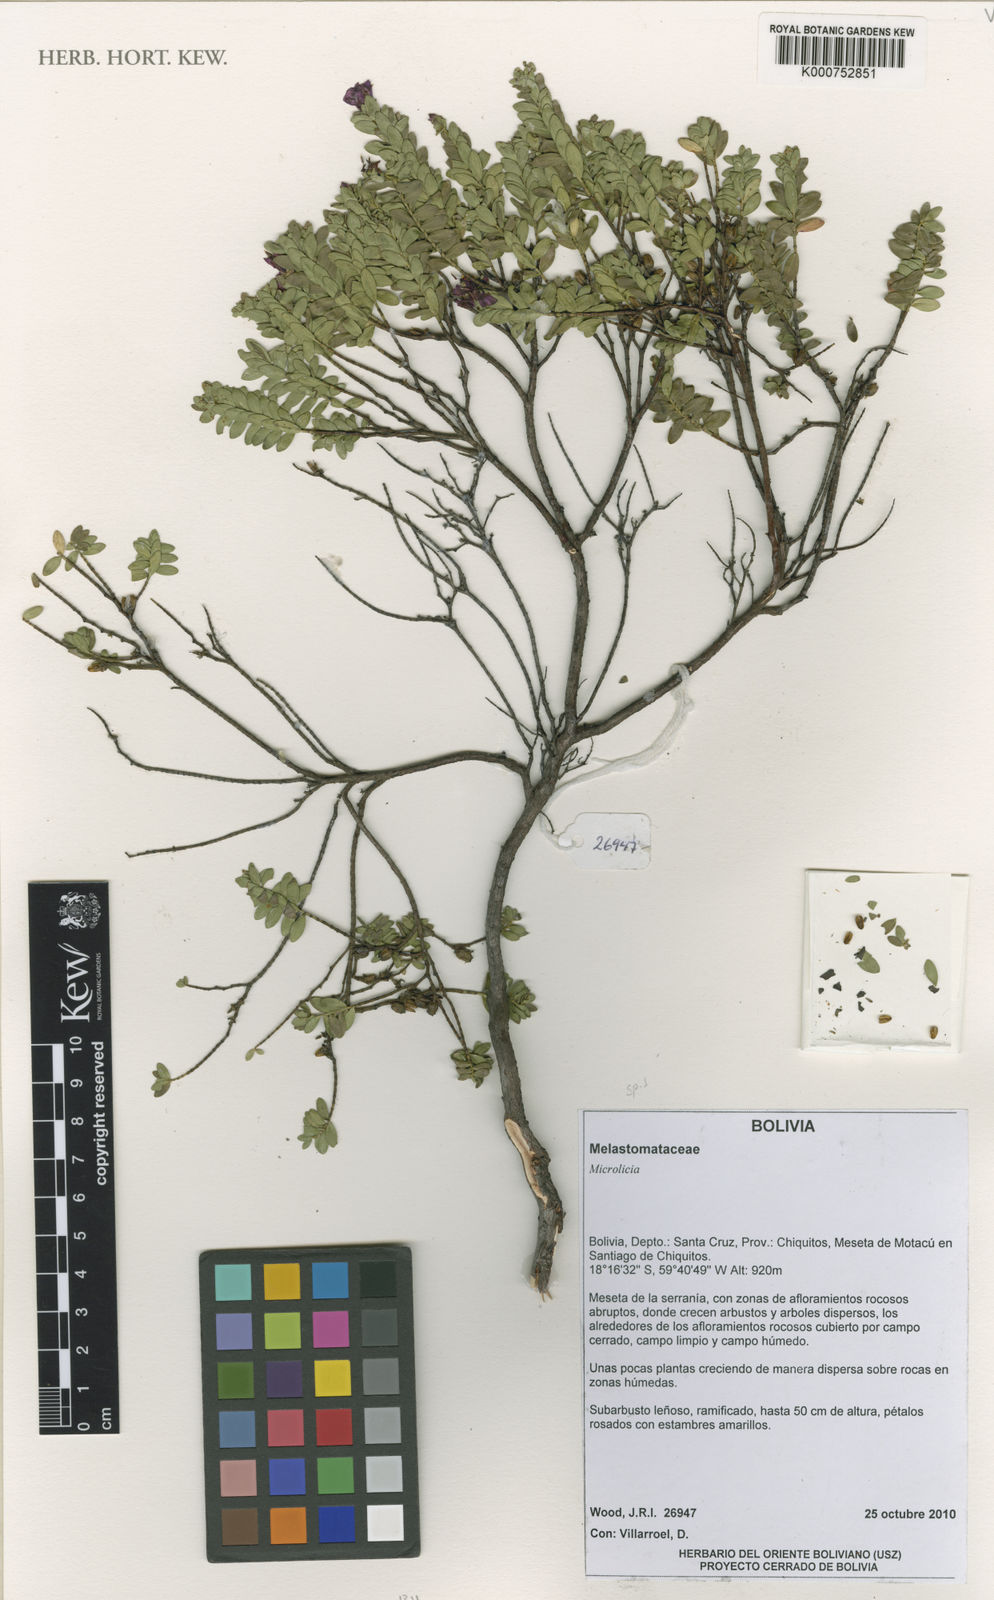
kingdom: Plantae
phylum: Tracheophyta
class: Magnoliopsida
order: Myrtales
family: Melastomataceae
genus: Microlicia
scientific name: Microlicia
